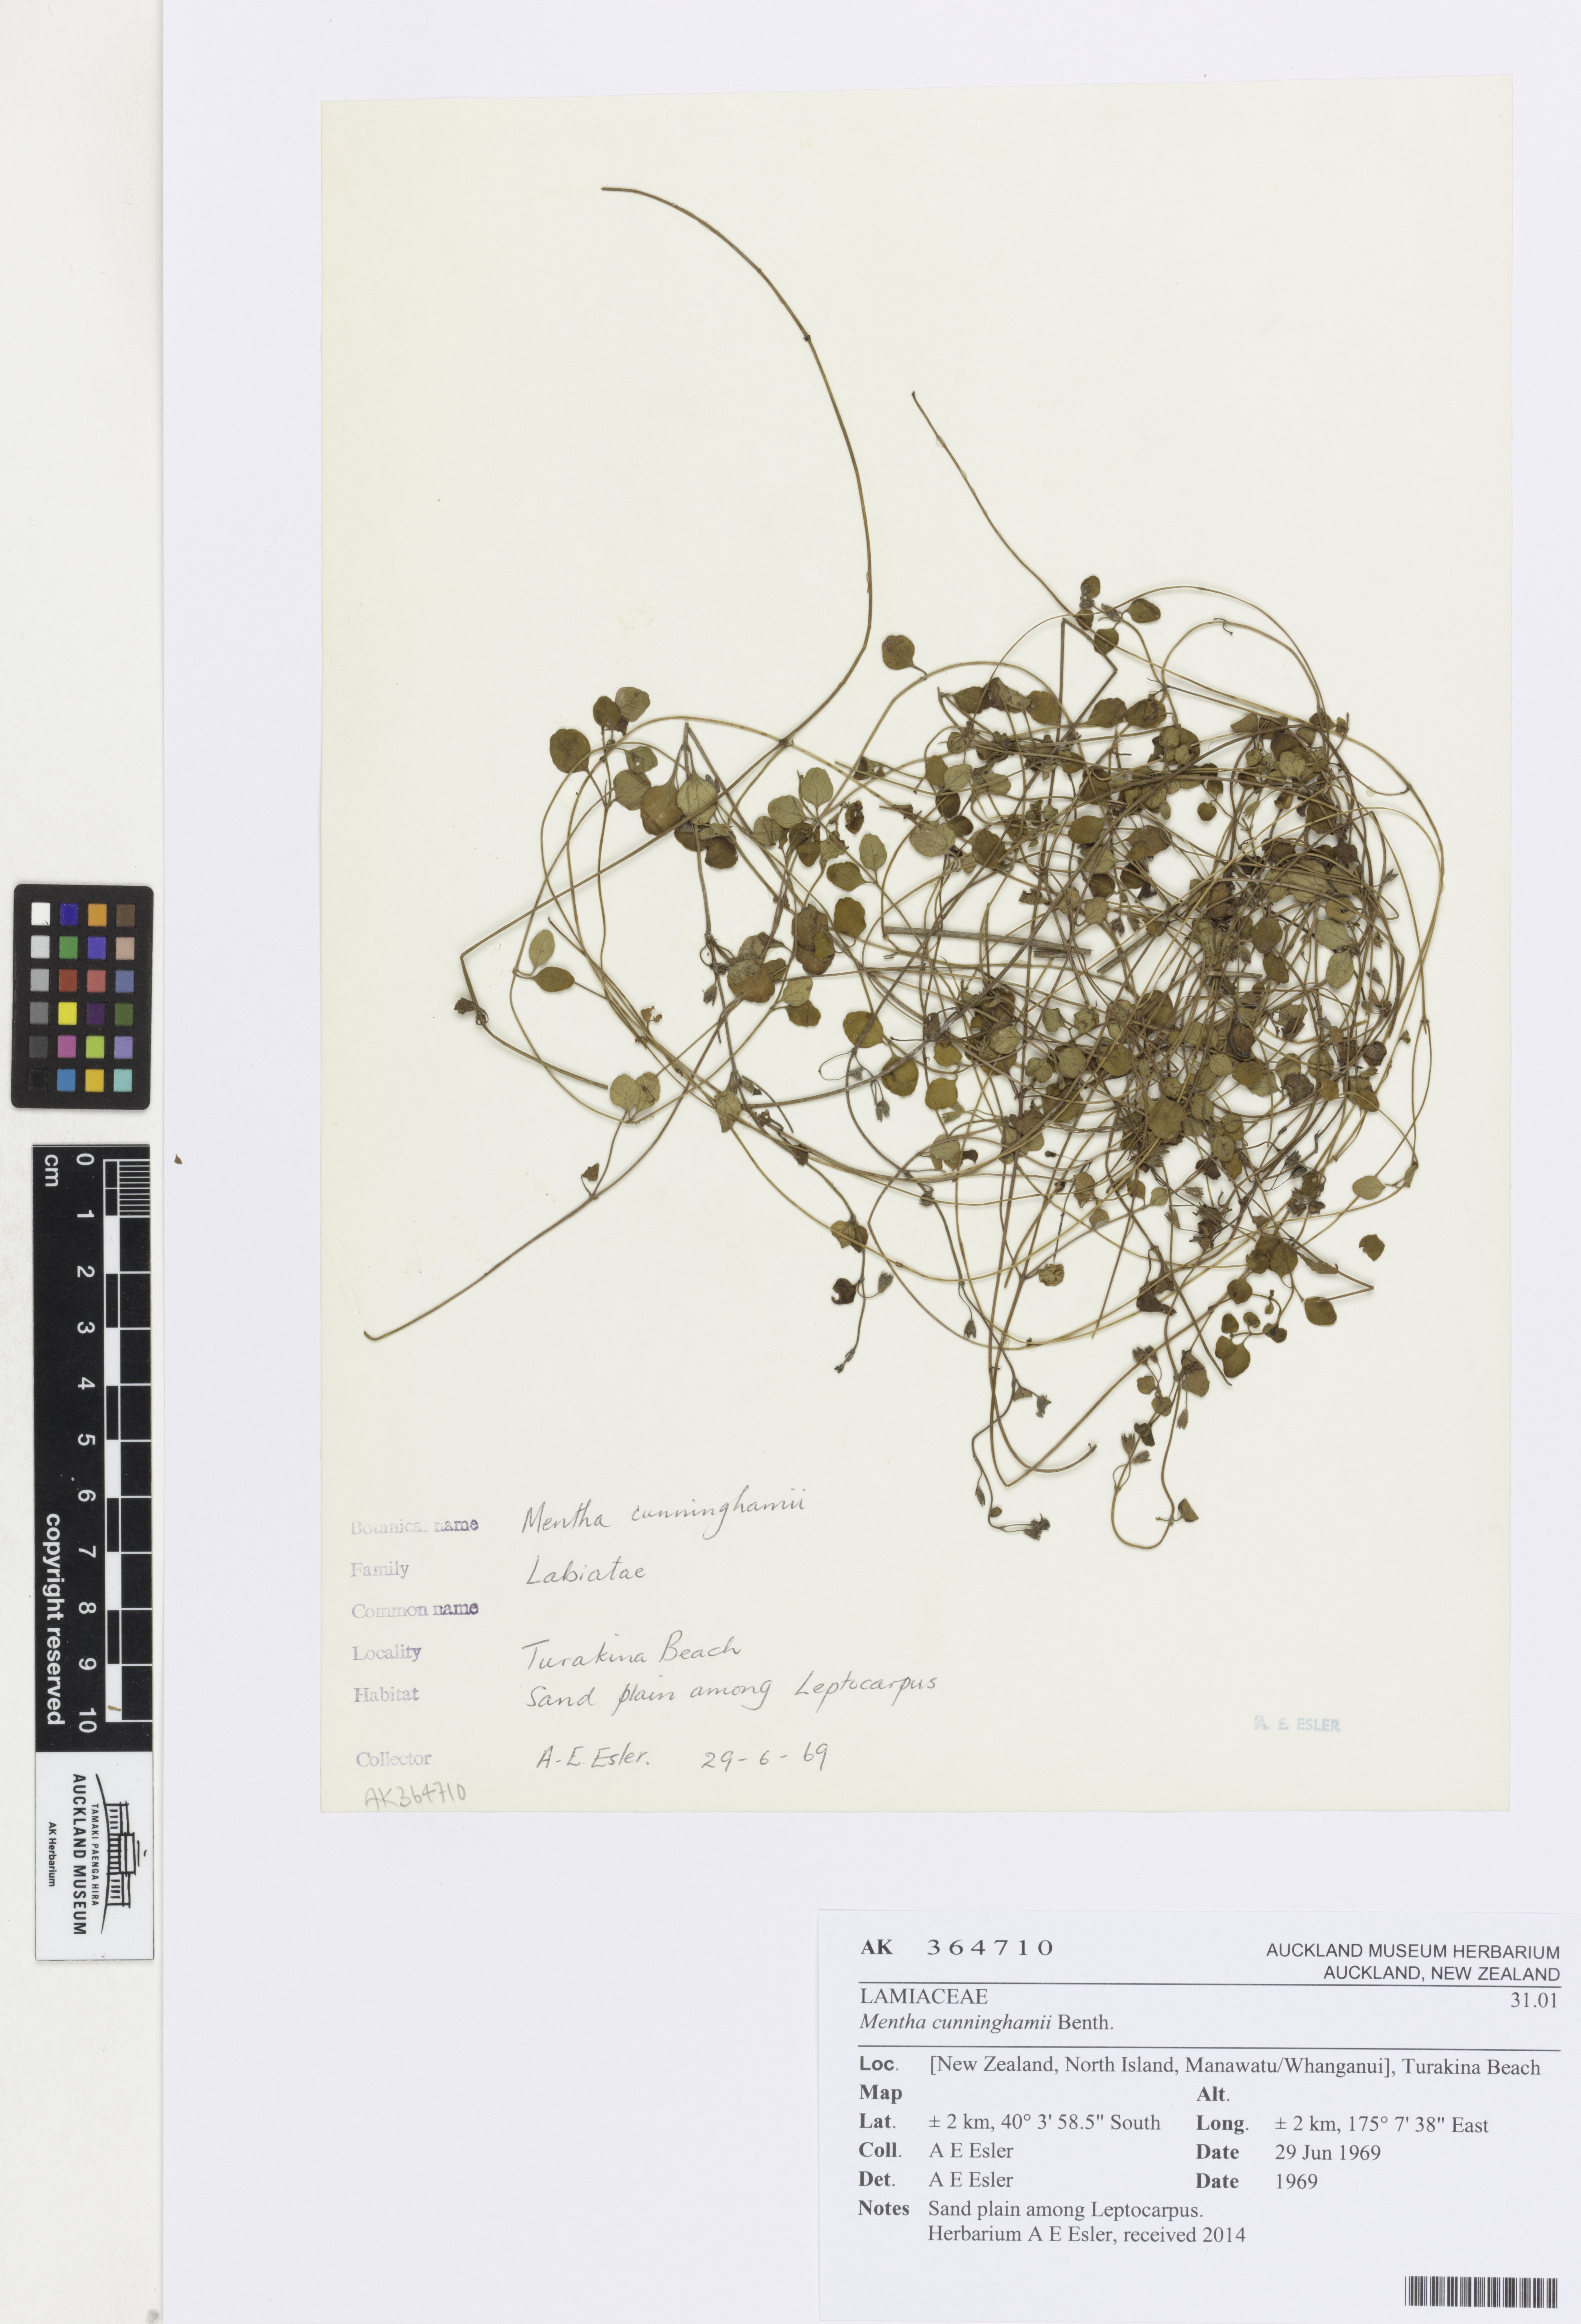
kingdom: Plantae
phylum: Tracheophyta
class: Magnoliopsida
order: Lamiales
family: Lamiaceae
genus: Mentha
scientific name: Mentha cunninghamii
